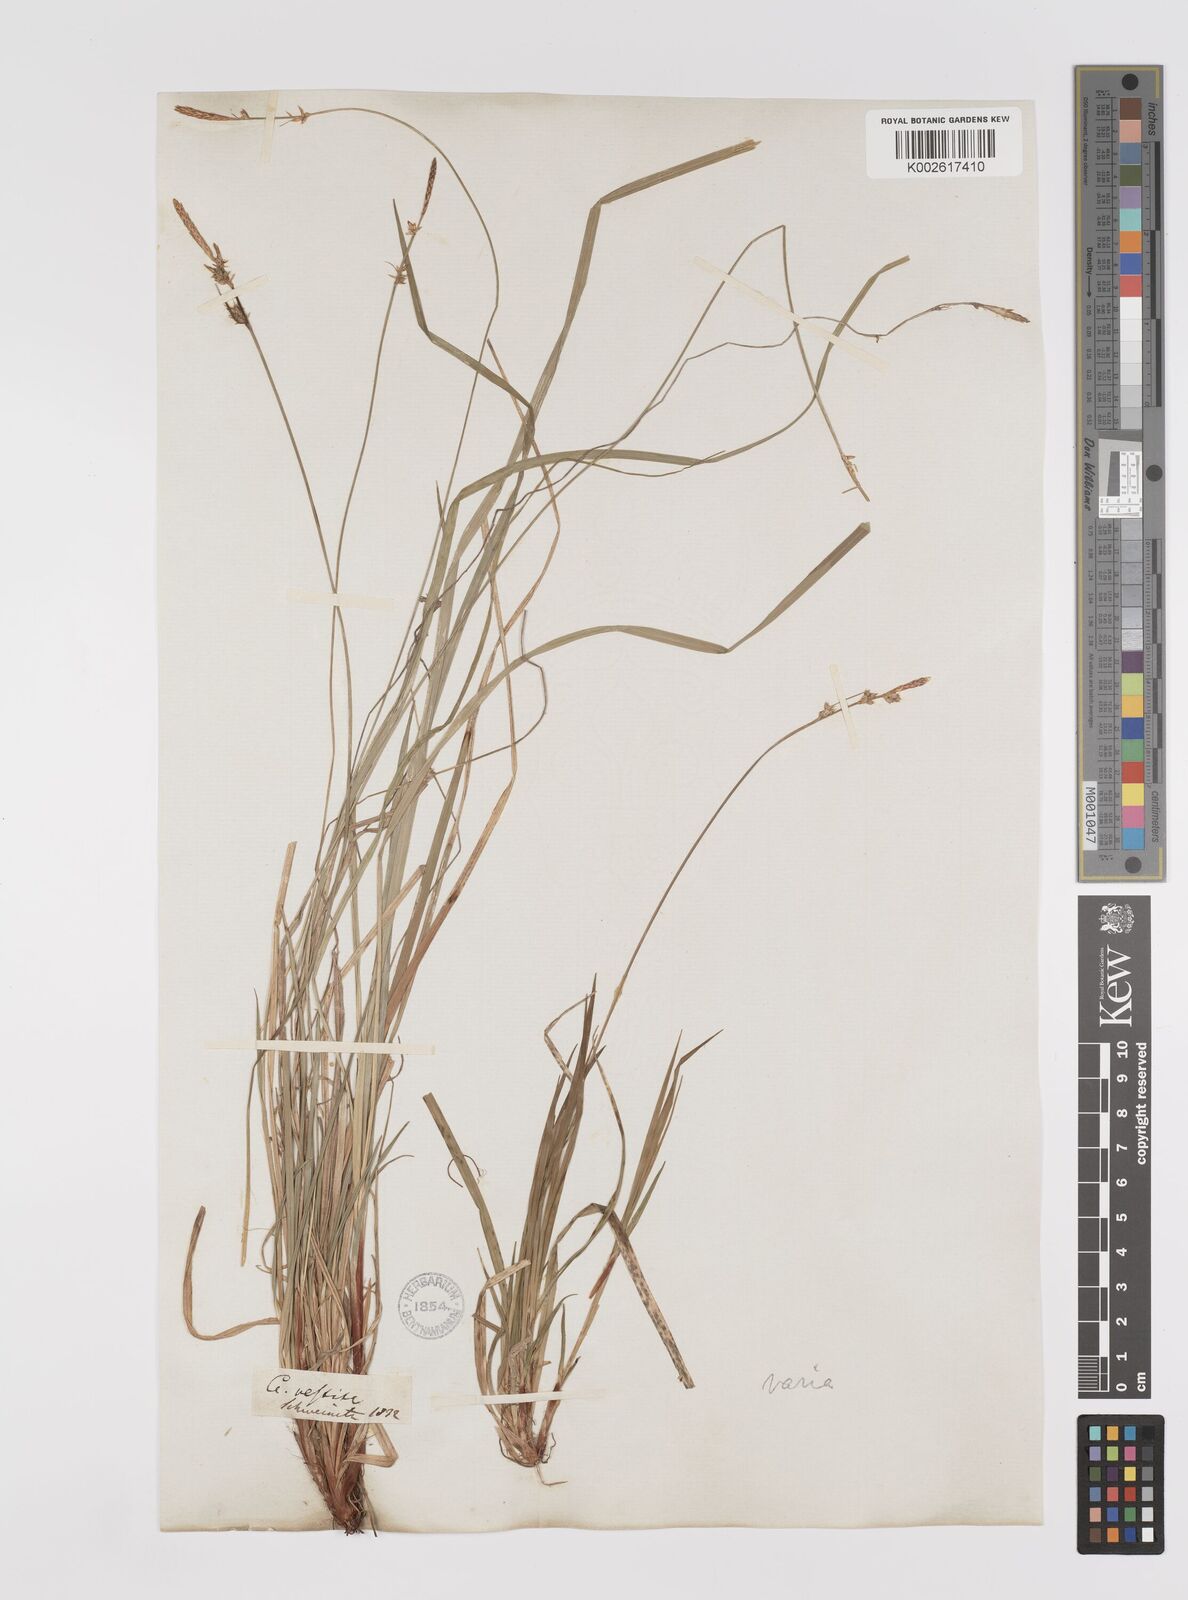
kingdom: Plantae
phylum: Tracheophyta
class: Liliopsida
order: Poales
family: Cyperaceae
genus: Carex
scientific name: Carex communis
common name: Colonial oak sedge
